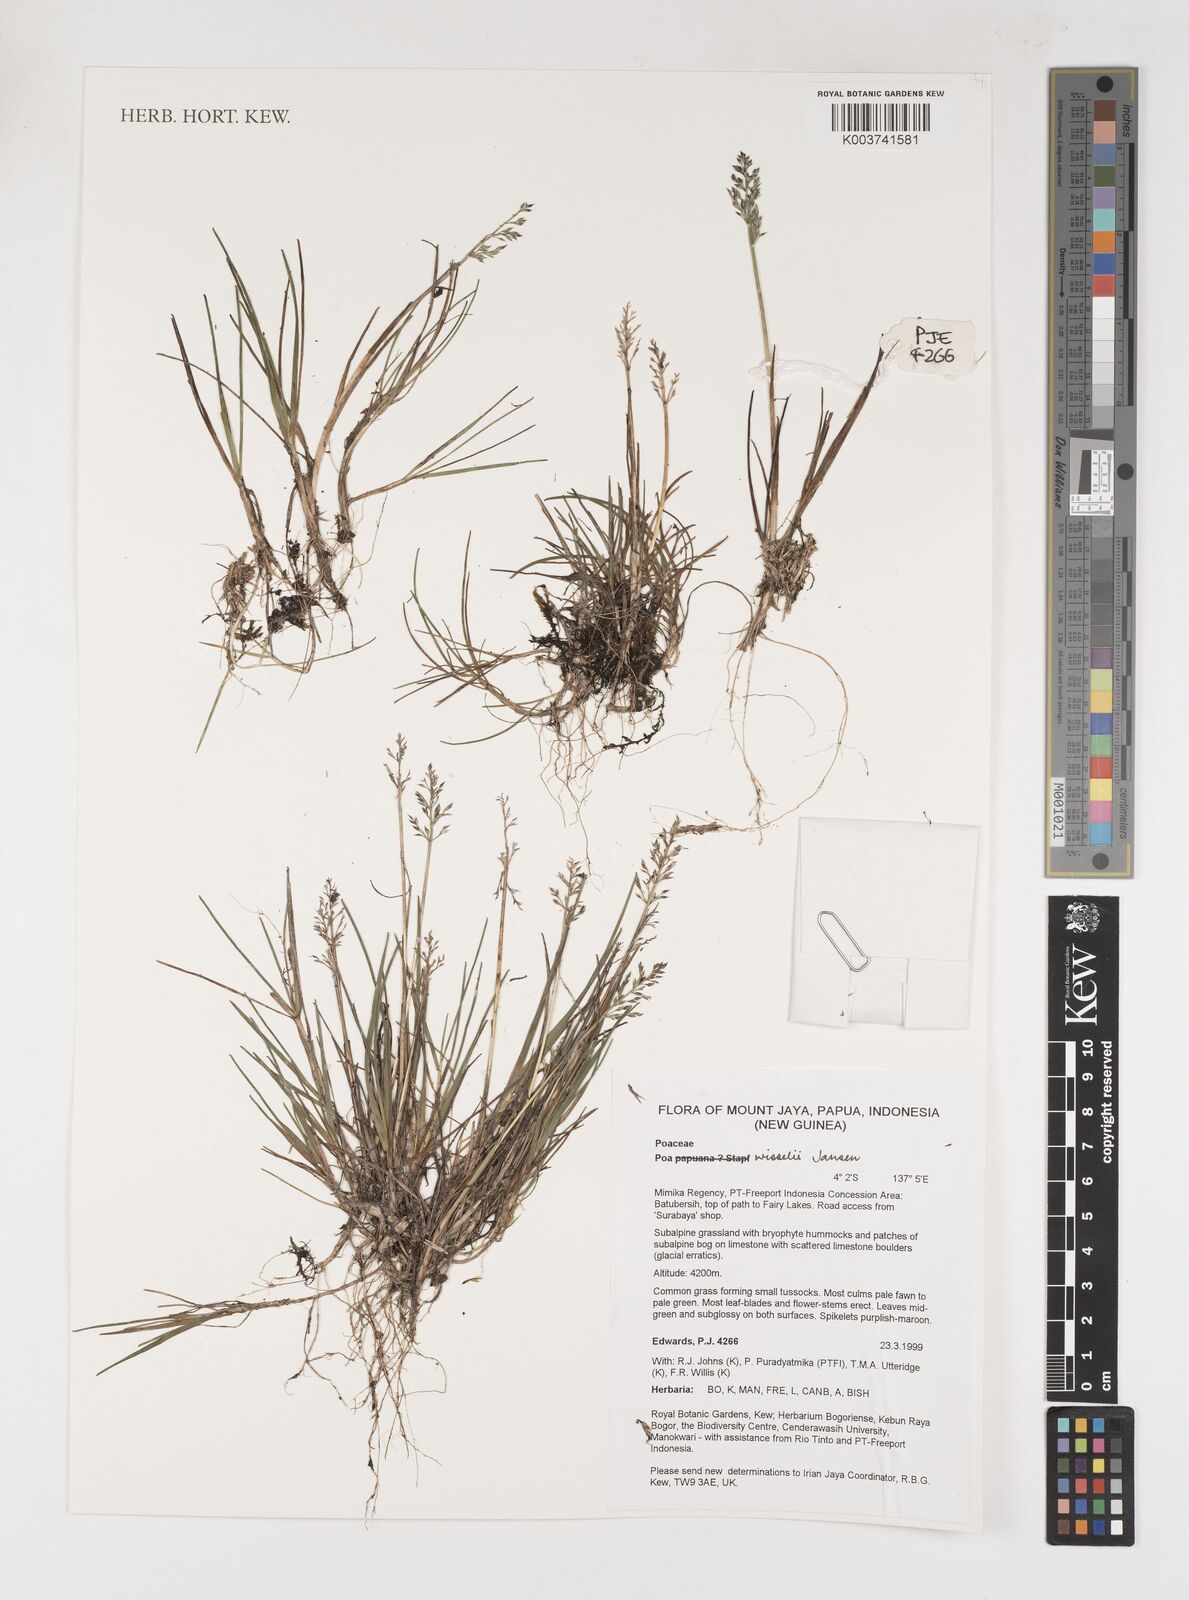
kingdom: Plantae
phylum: Tracheophyta
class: Liliopsida
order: Poales
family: Poaceae
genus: Poa
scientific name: Poa wisselii
